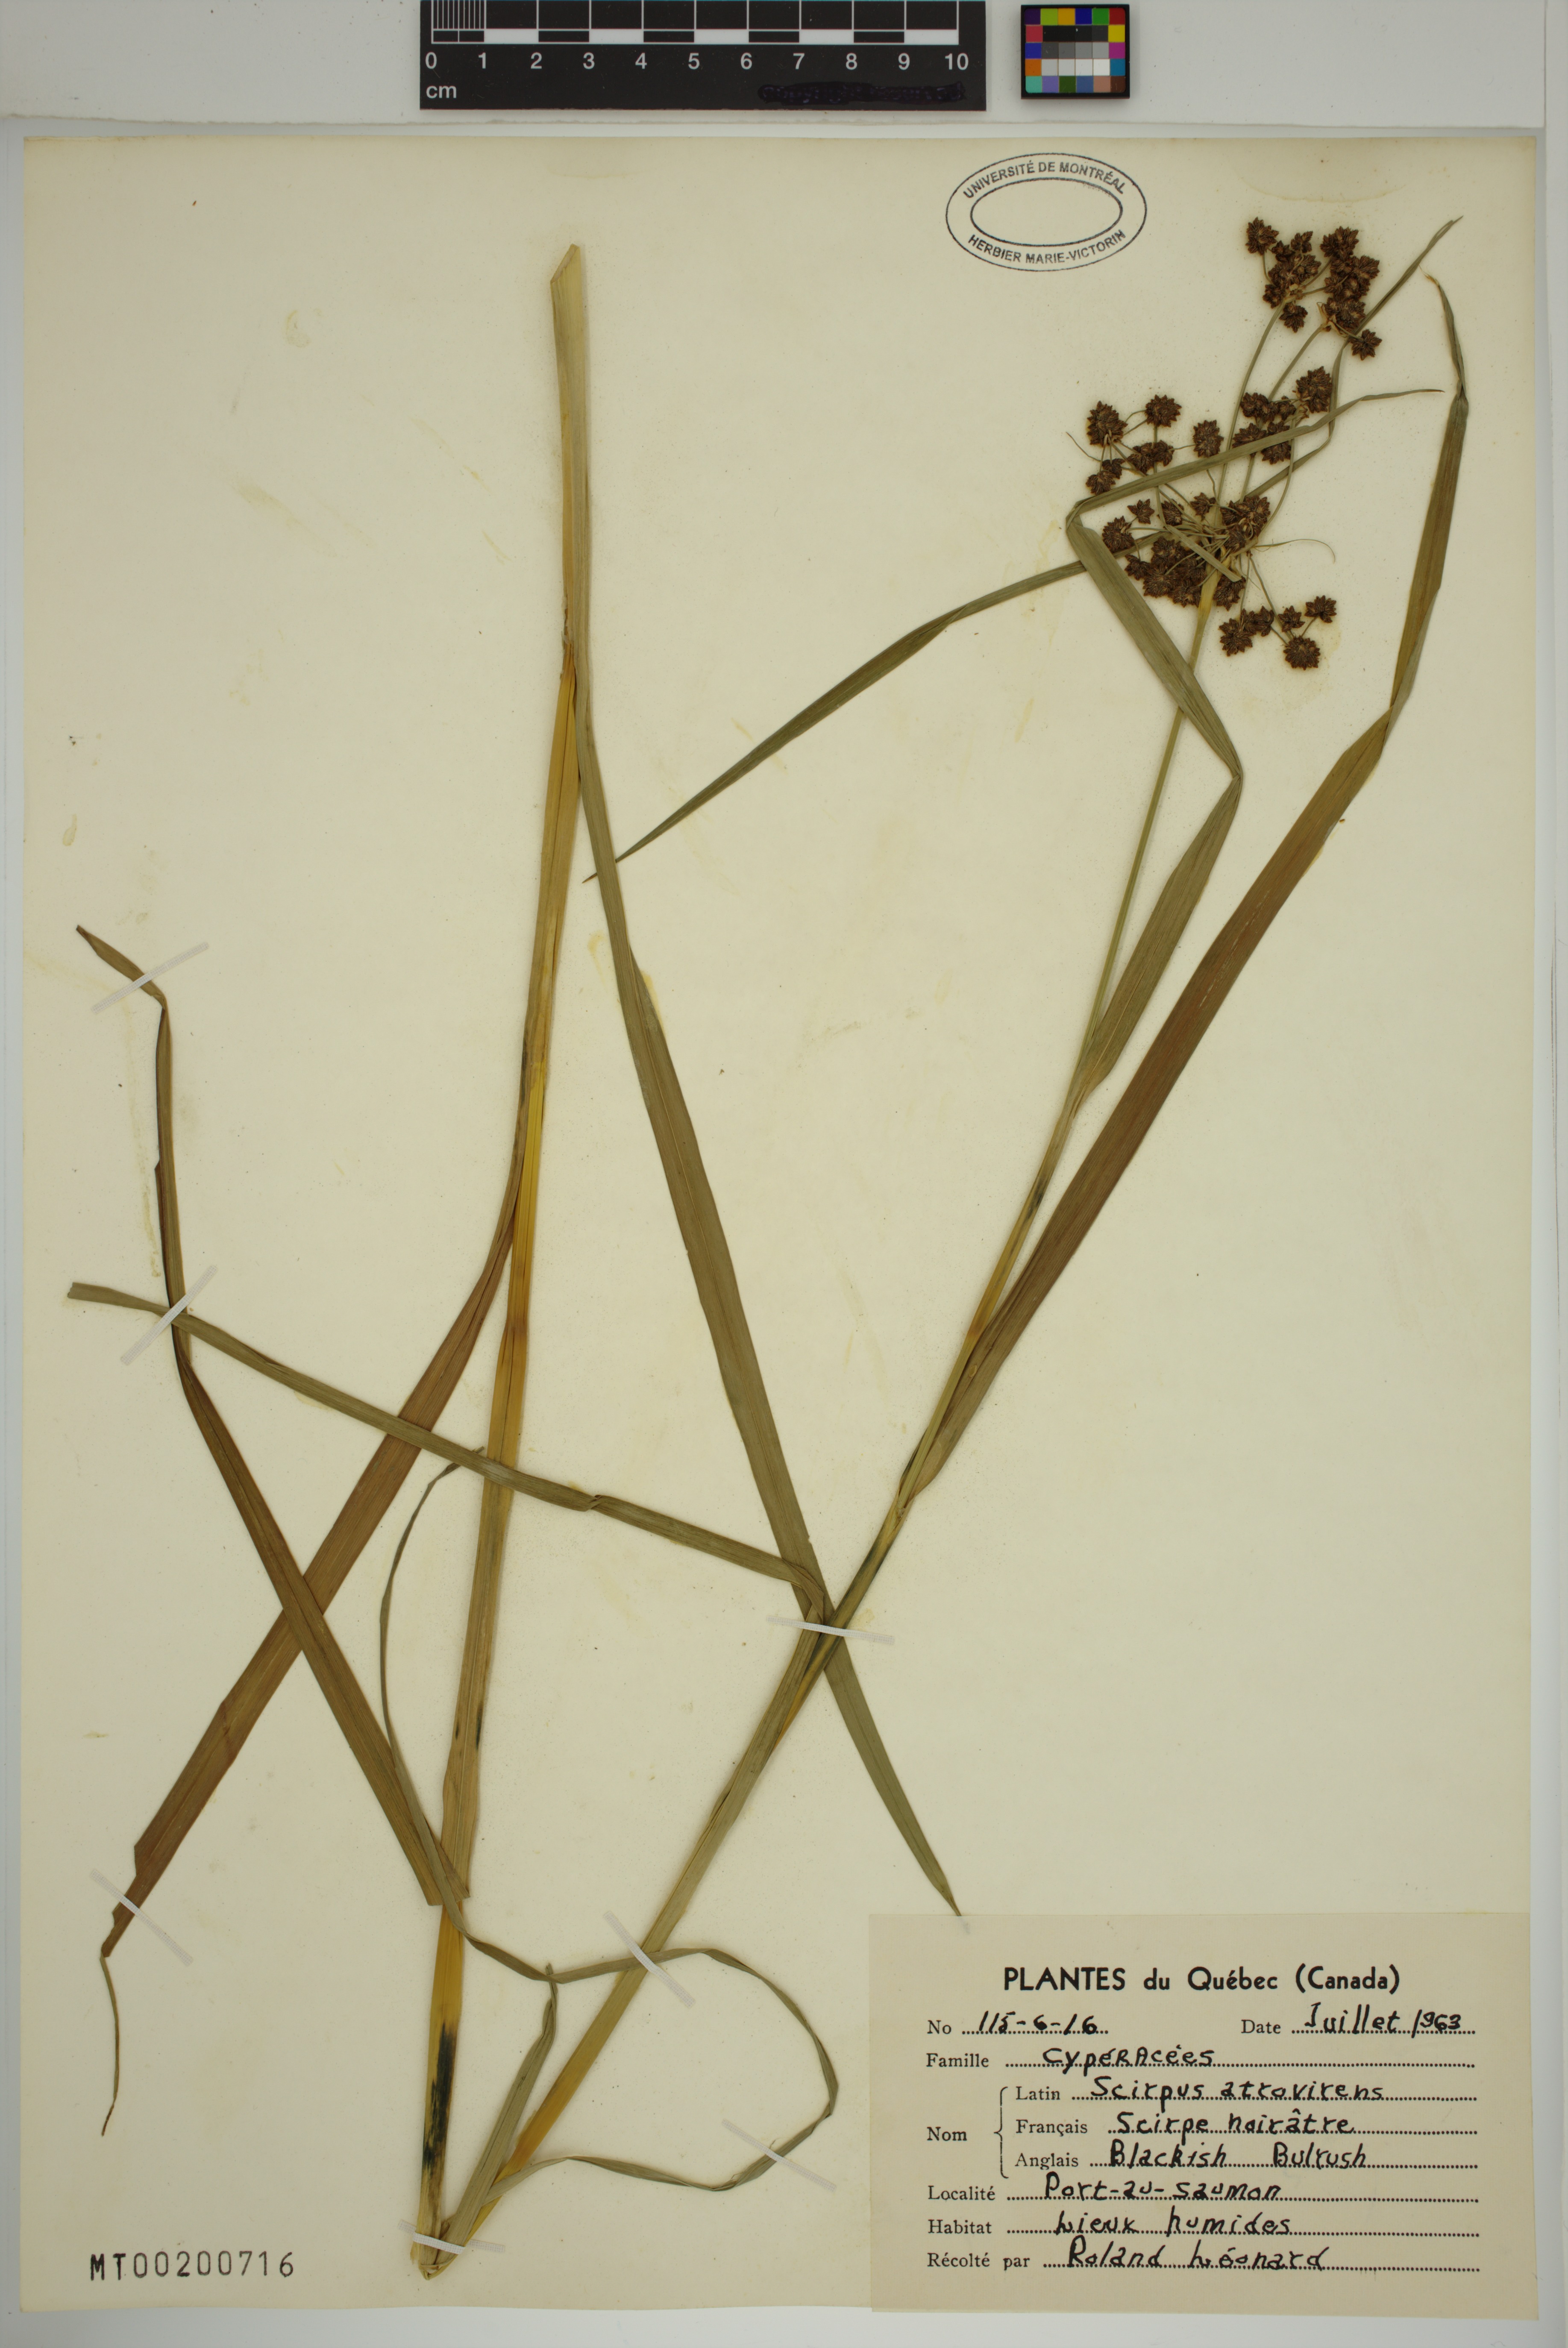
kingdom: Plantae
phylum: Tracheophyta
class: Liliopsida
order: Poales
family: Cyperaceae
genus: Scirpus
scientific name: Scirpus hattorianus
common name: Early dark-green bulrush
